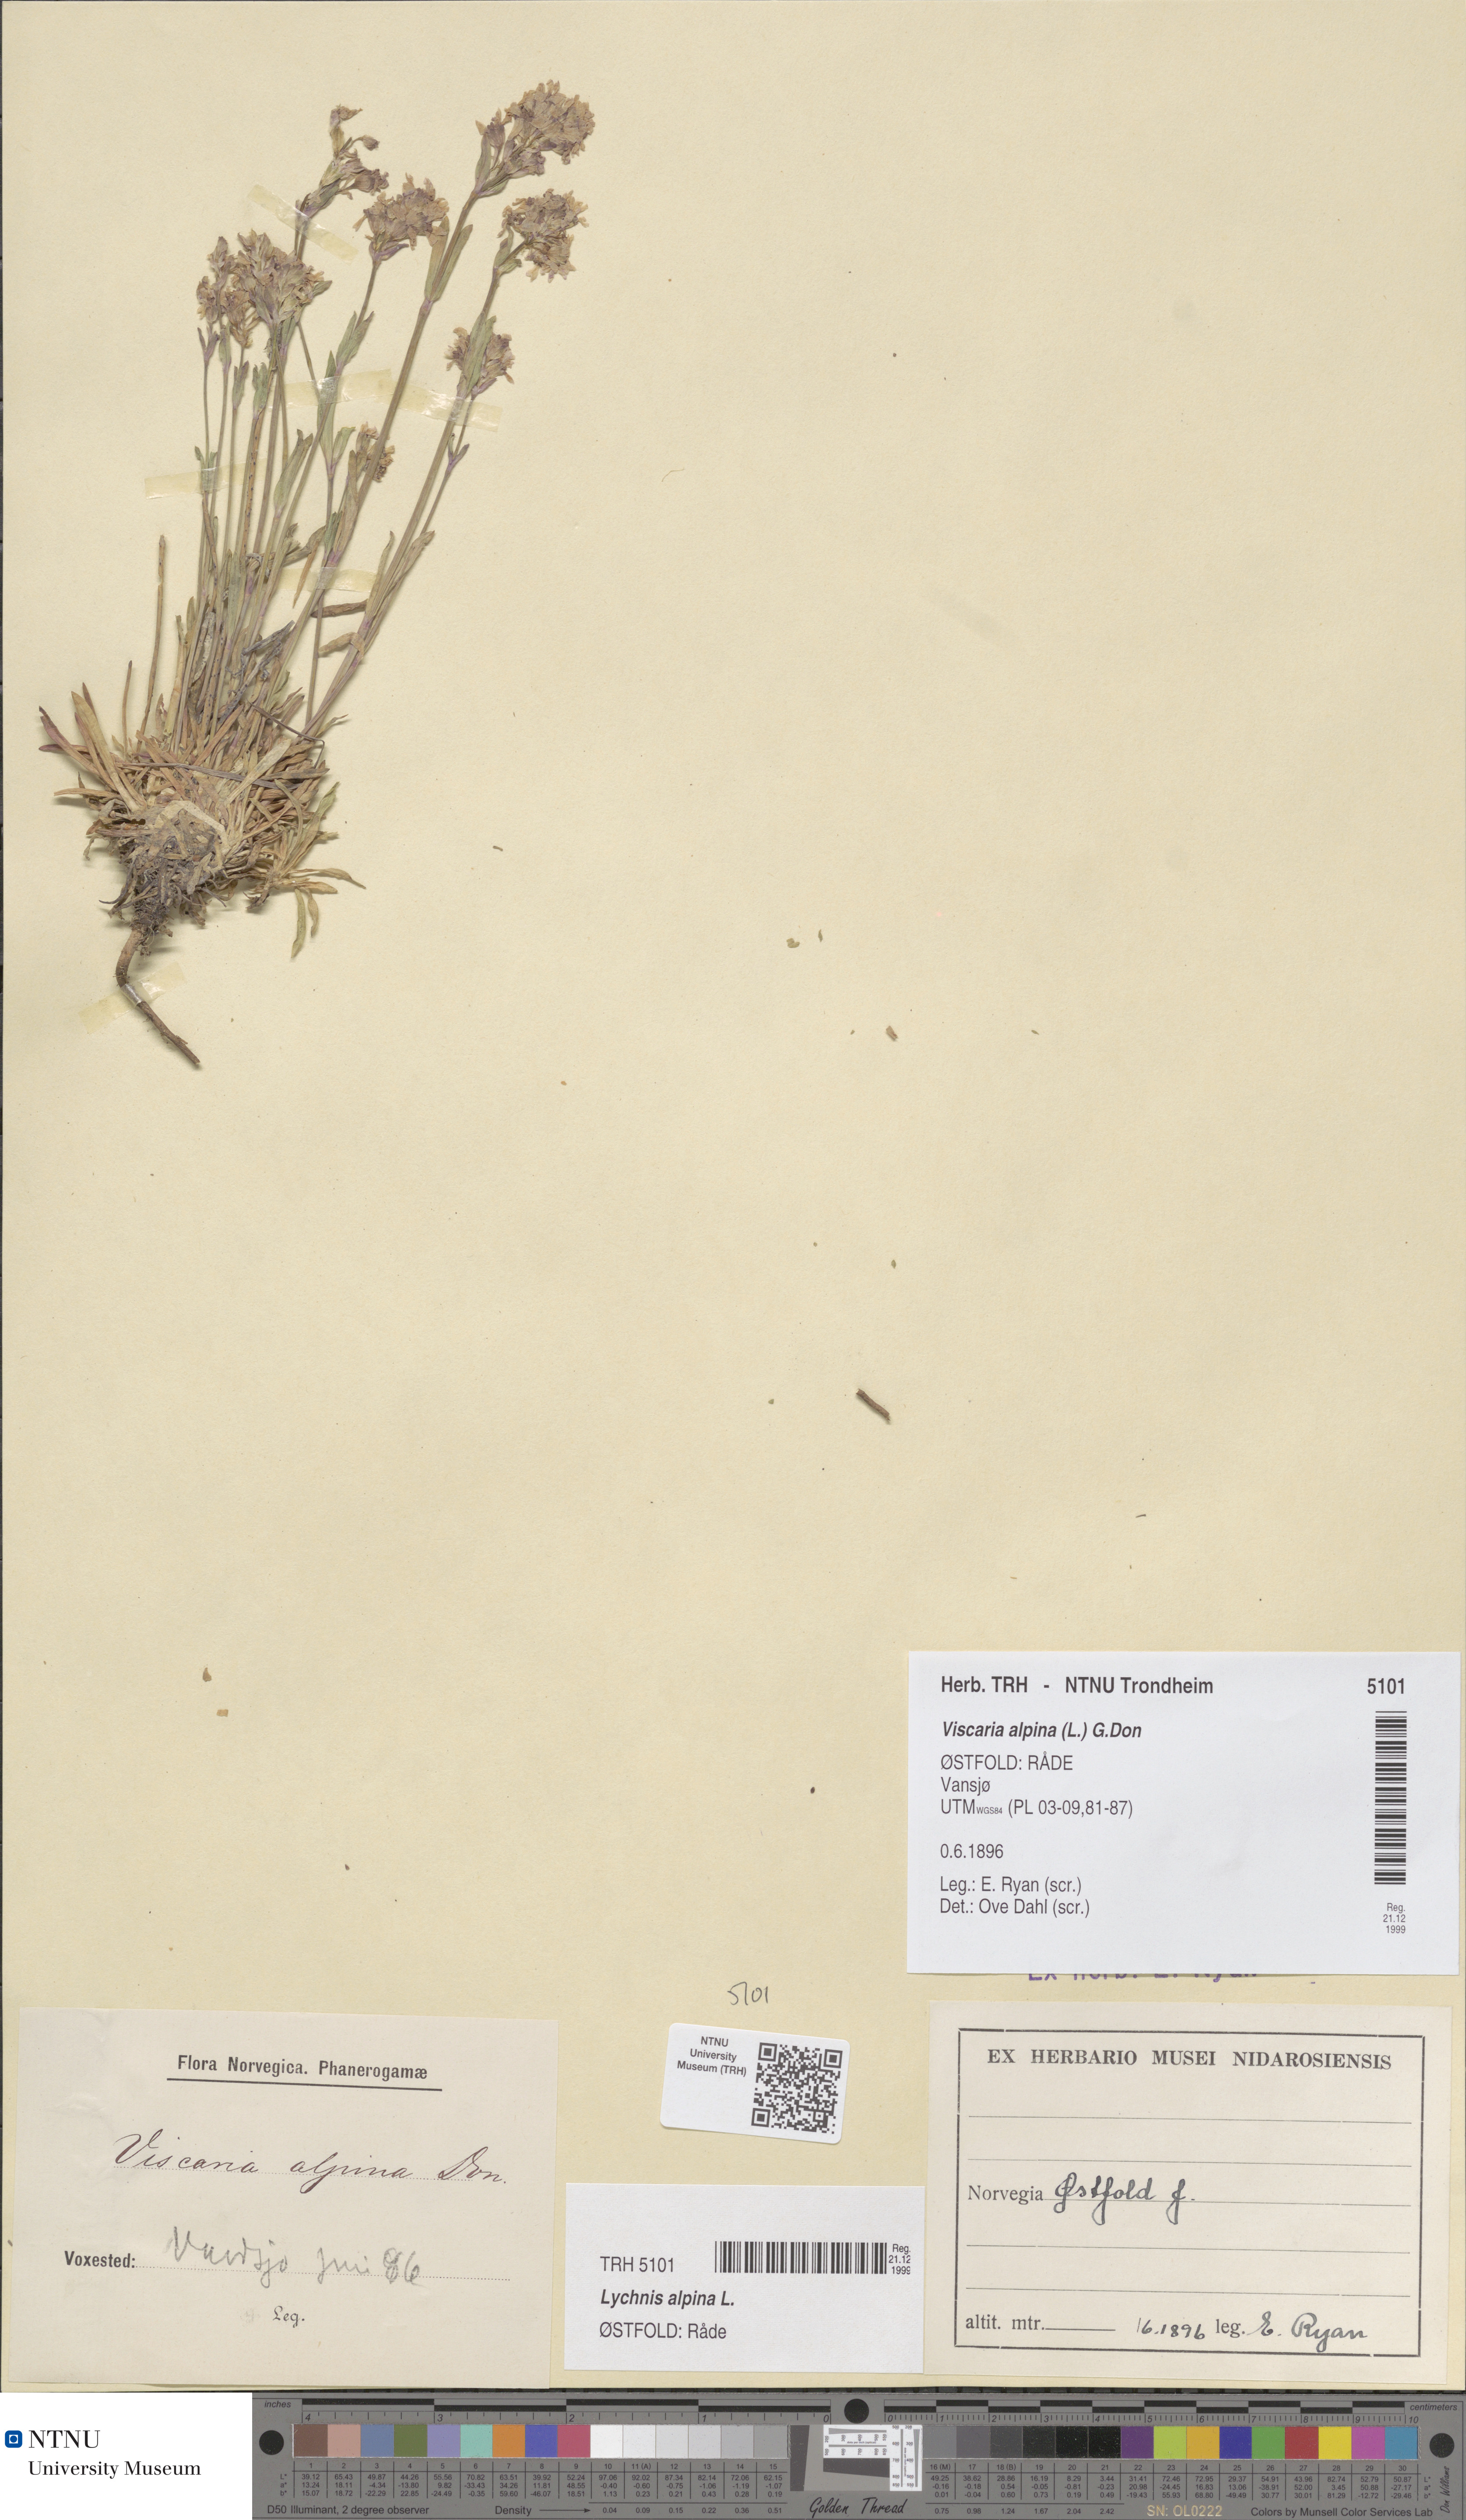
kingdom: Plantae
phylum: Tracheophyta
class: Magnoliopsida
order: Caryophyllales
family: Caryophyllaceae
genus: Viscaria
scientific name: Viscaria alpina
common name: Alpine campion
